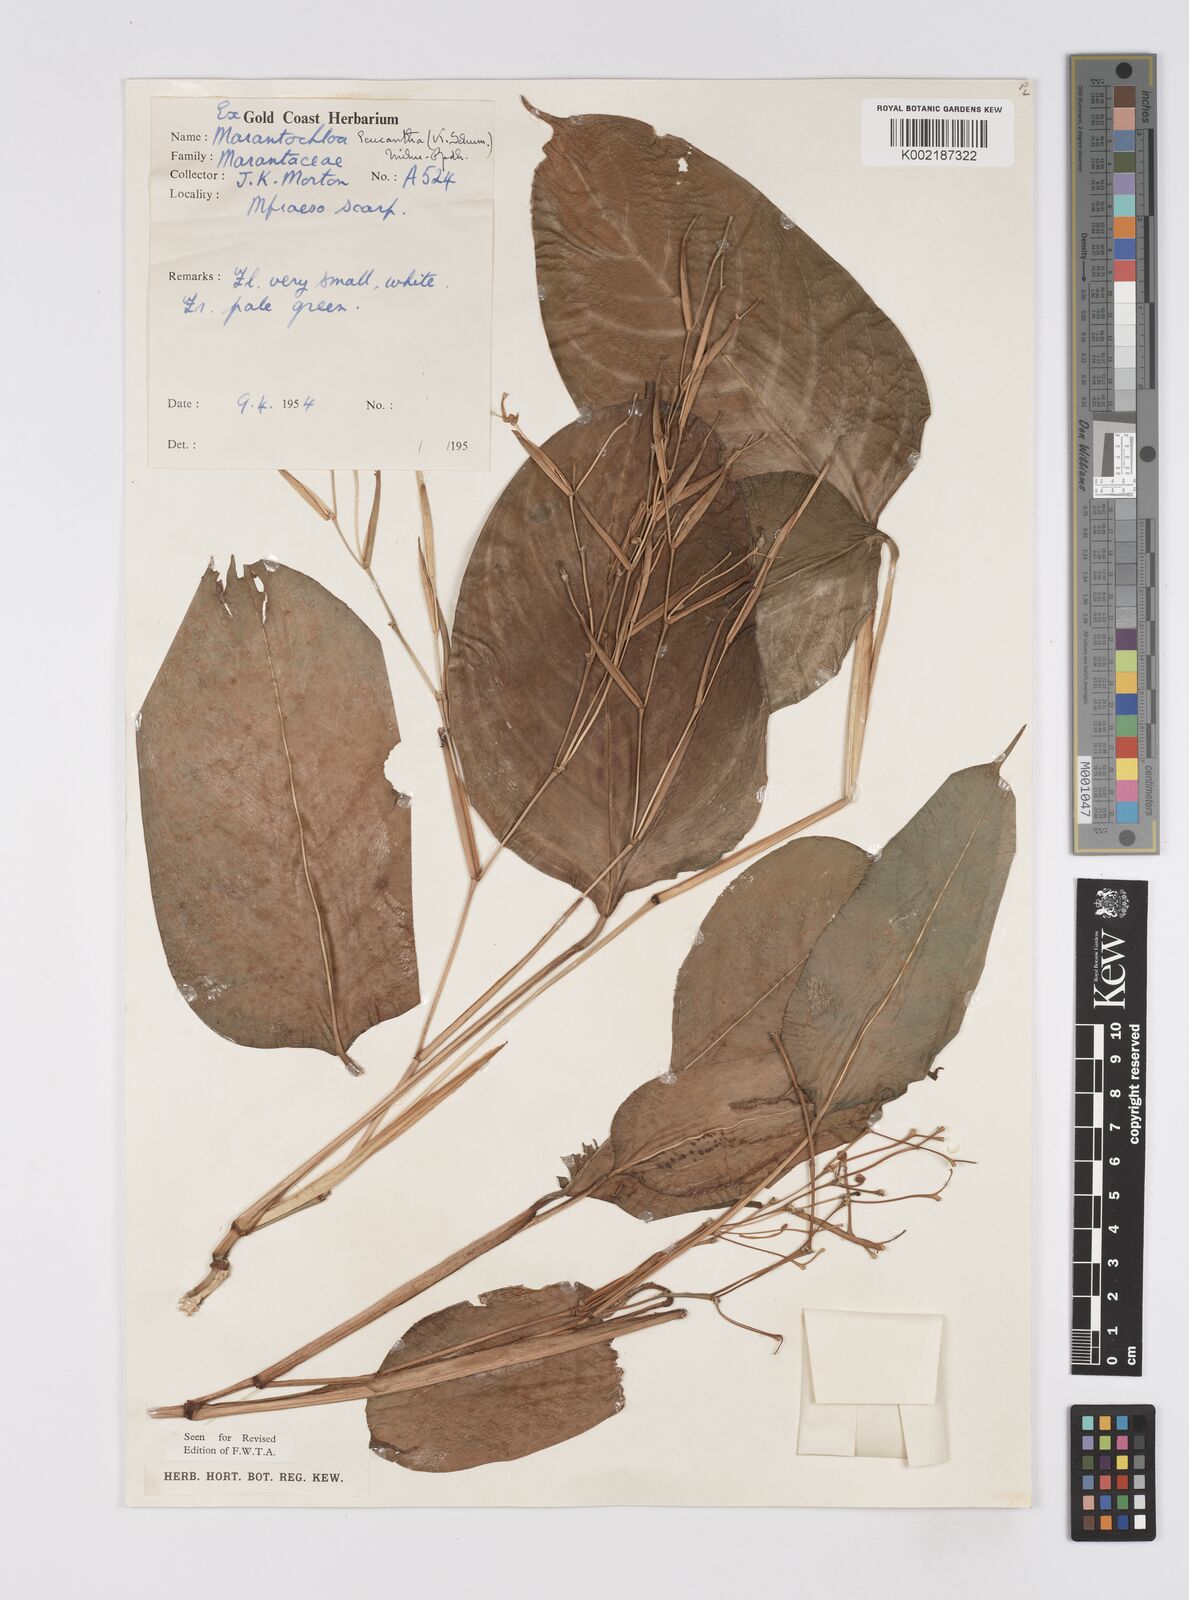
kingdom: Plantae
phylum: Tracheophyta
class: Liliopsida
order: Zingiberales
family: Marantaceae
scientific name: Marantaceae
